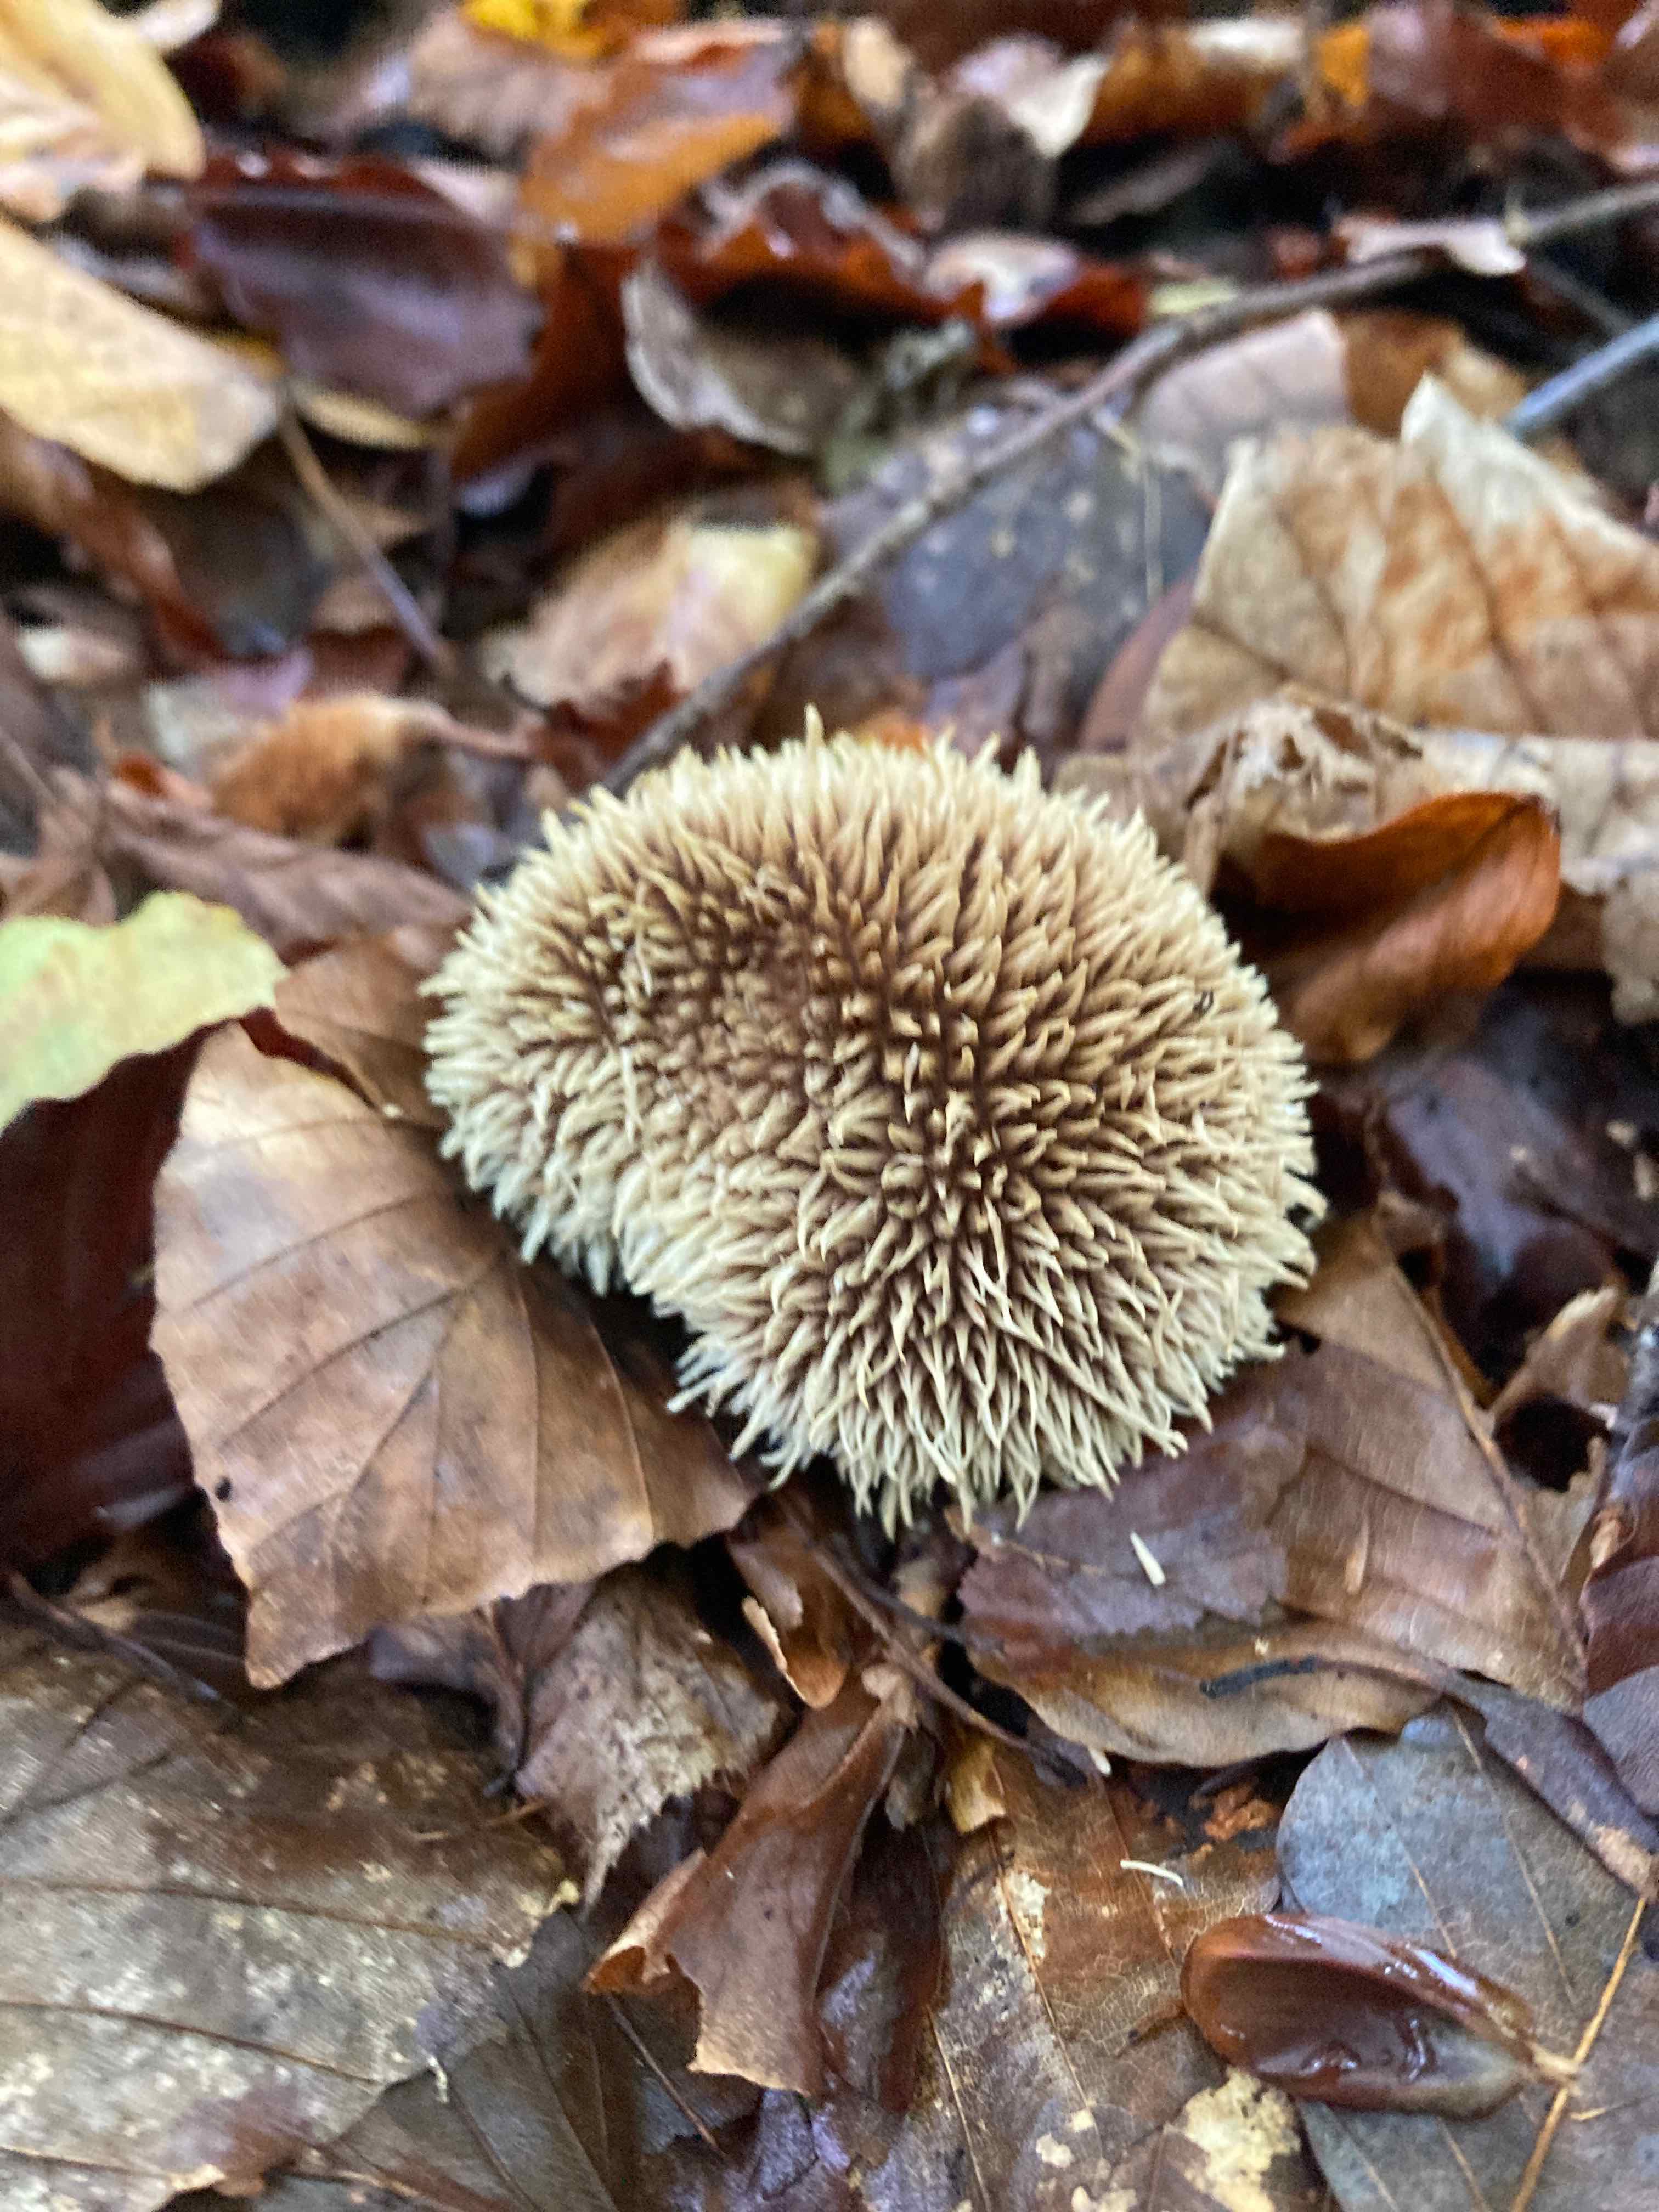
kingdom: Fungi
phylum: Basidiomycota
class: Agaricomycetes
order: Agaricales
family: Lycoperdaceae
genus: Lycoperdon
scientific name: Lycoperdon echinatum
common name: pindsvine-støvbold
